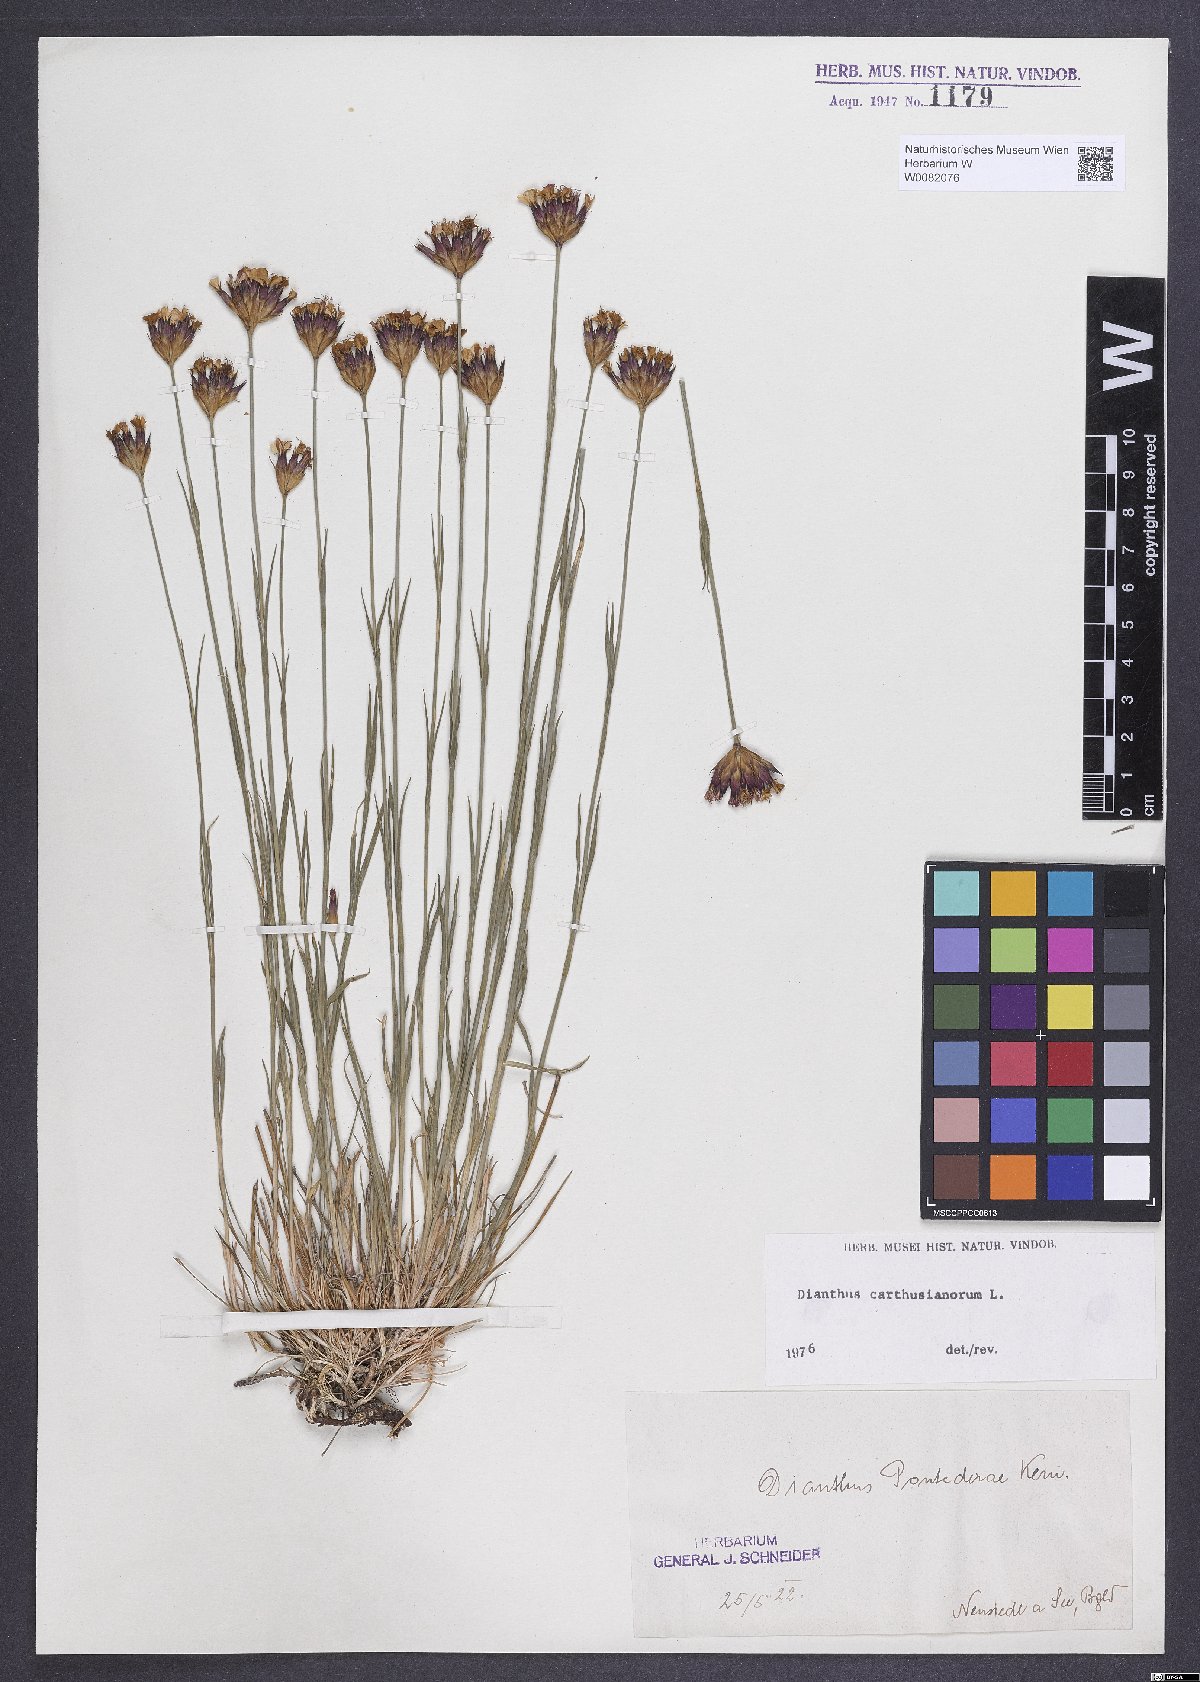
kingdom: Plantae
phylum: Tracheophyta
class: Magnoliopsida
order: Caryophyllales
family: Caryophyllaceae
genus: Dianthus
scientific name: Dianthus carthusianorum
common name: Carthusian pink
